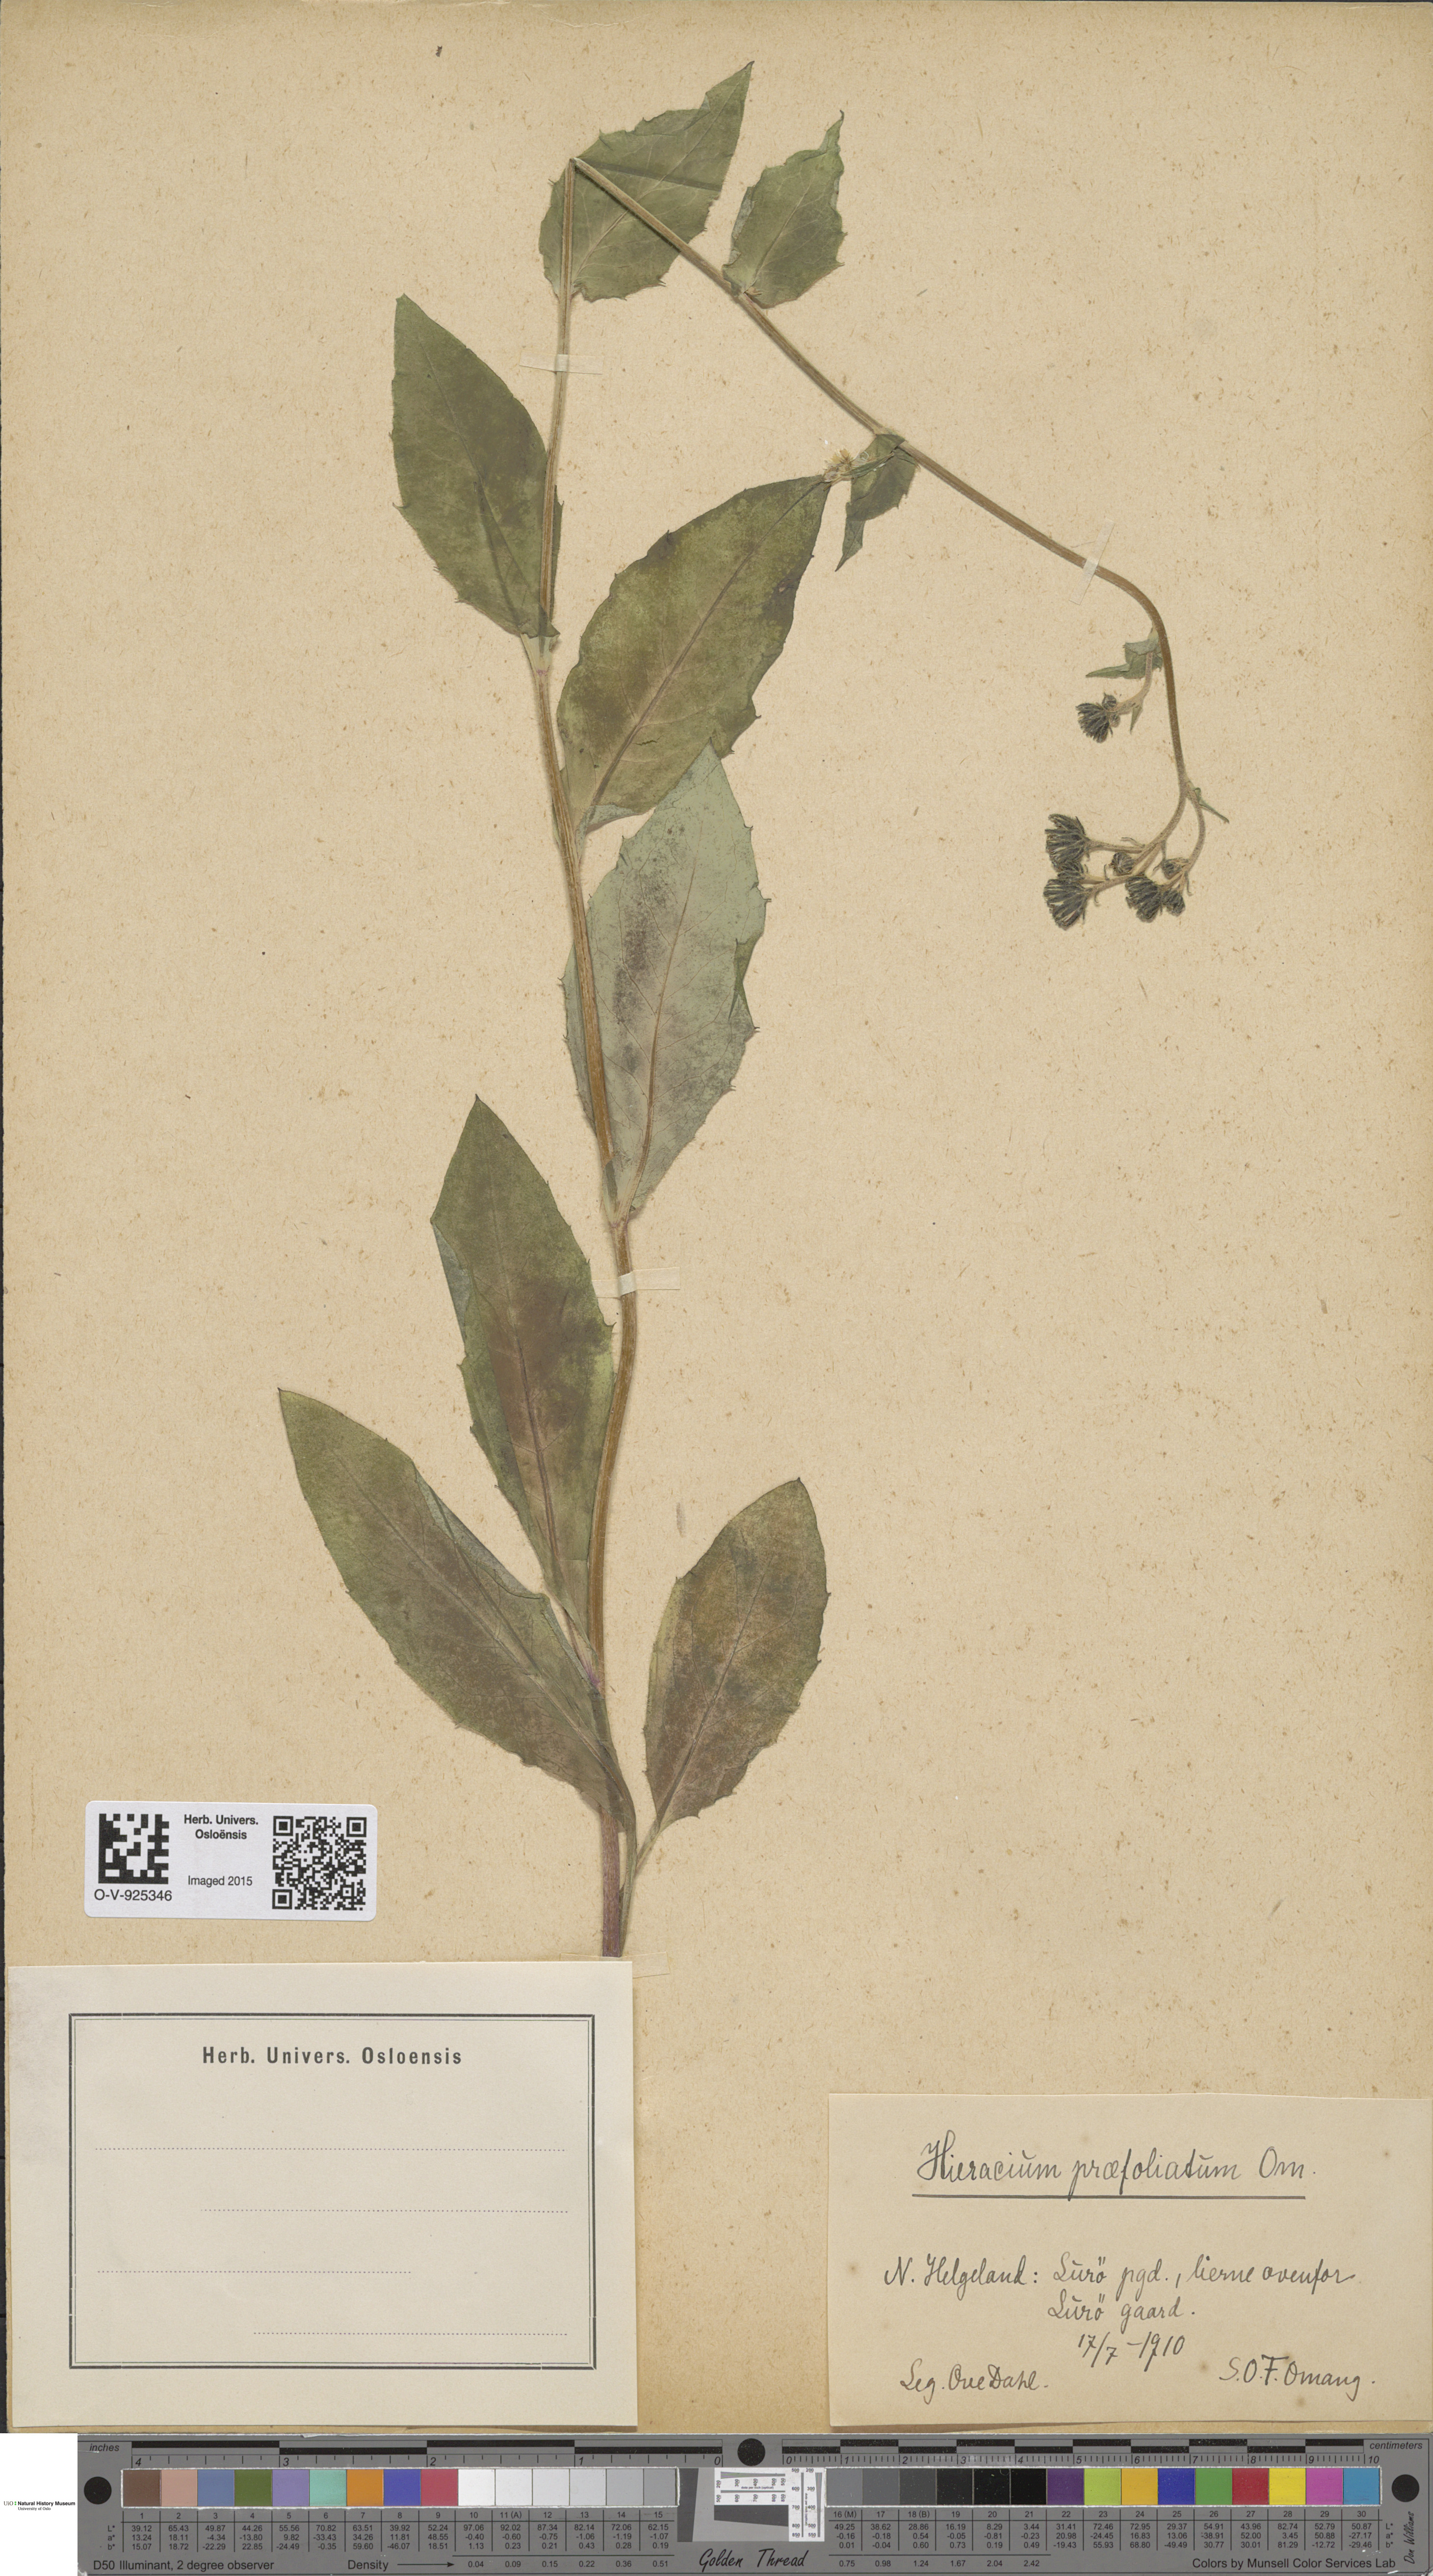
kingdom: Plantae
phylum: Tracheophyta
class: Magnoliopsida
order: Asterales
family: Asteraceae
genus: Hieracium
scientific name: Hieracium praefoliatum
